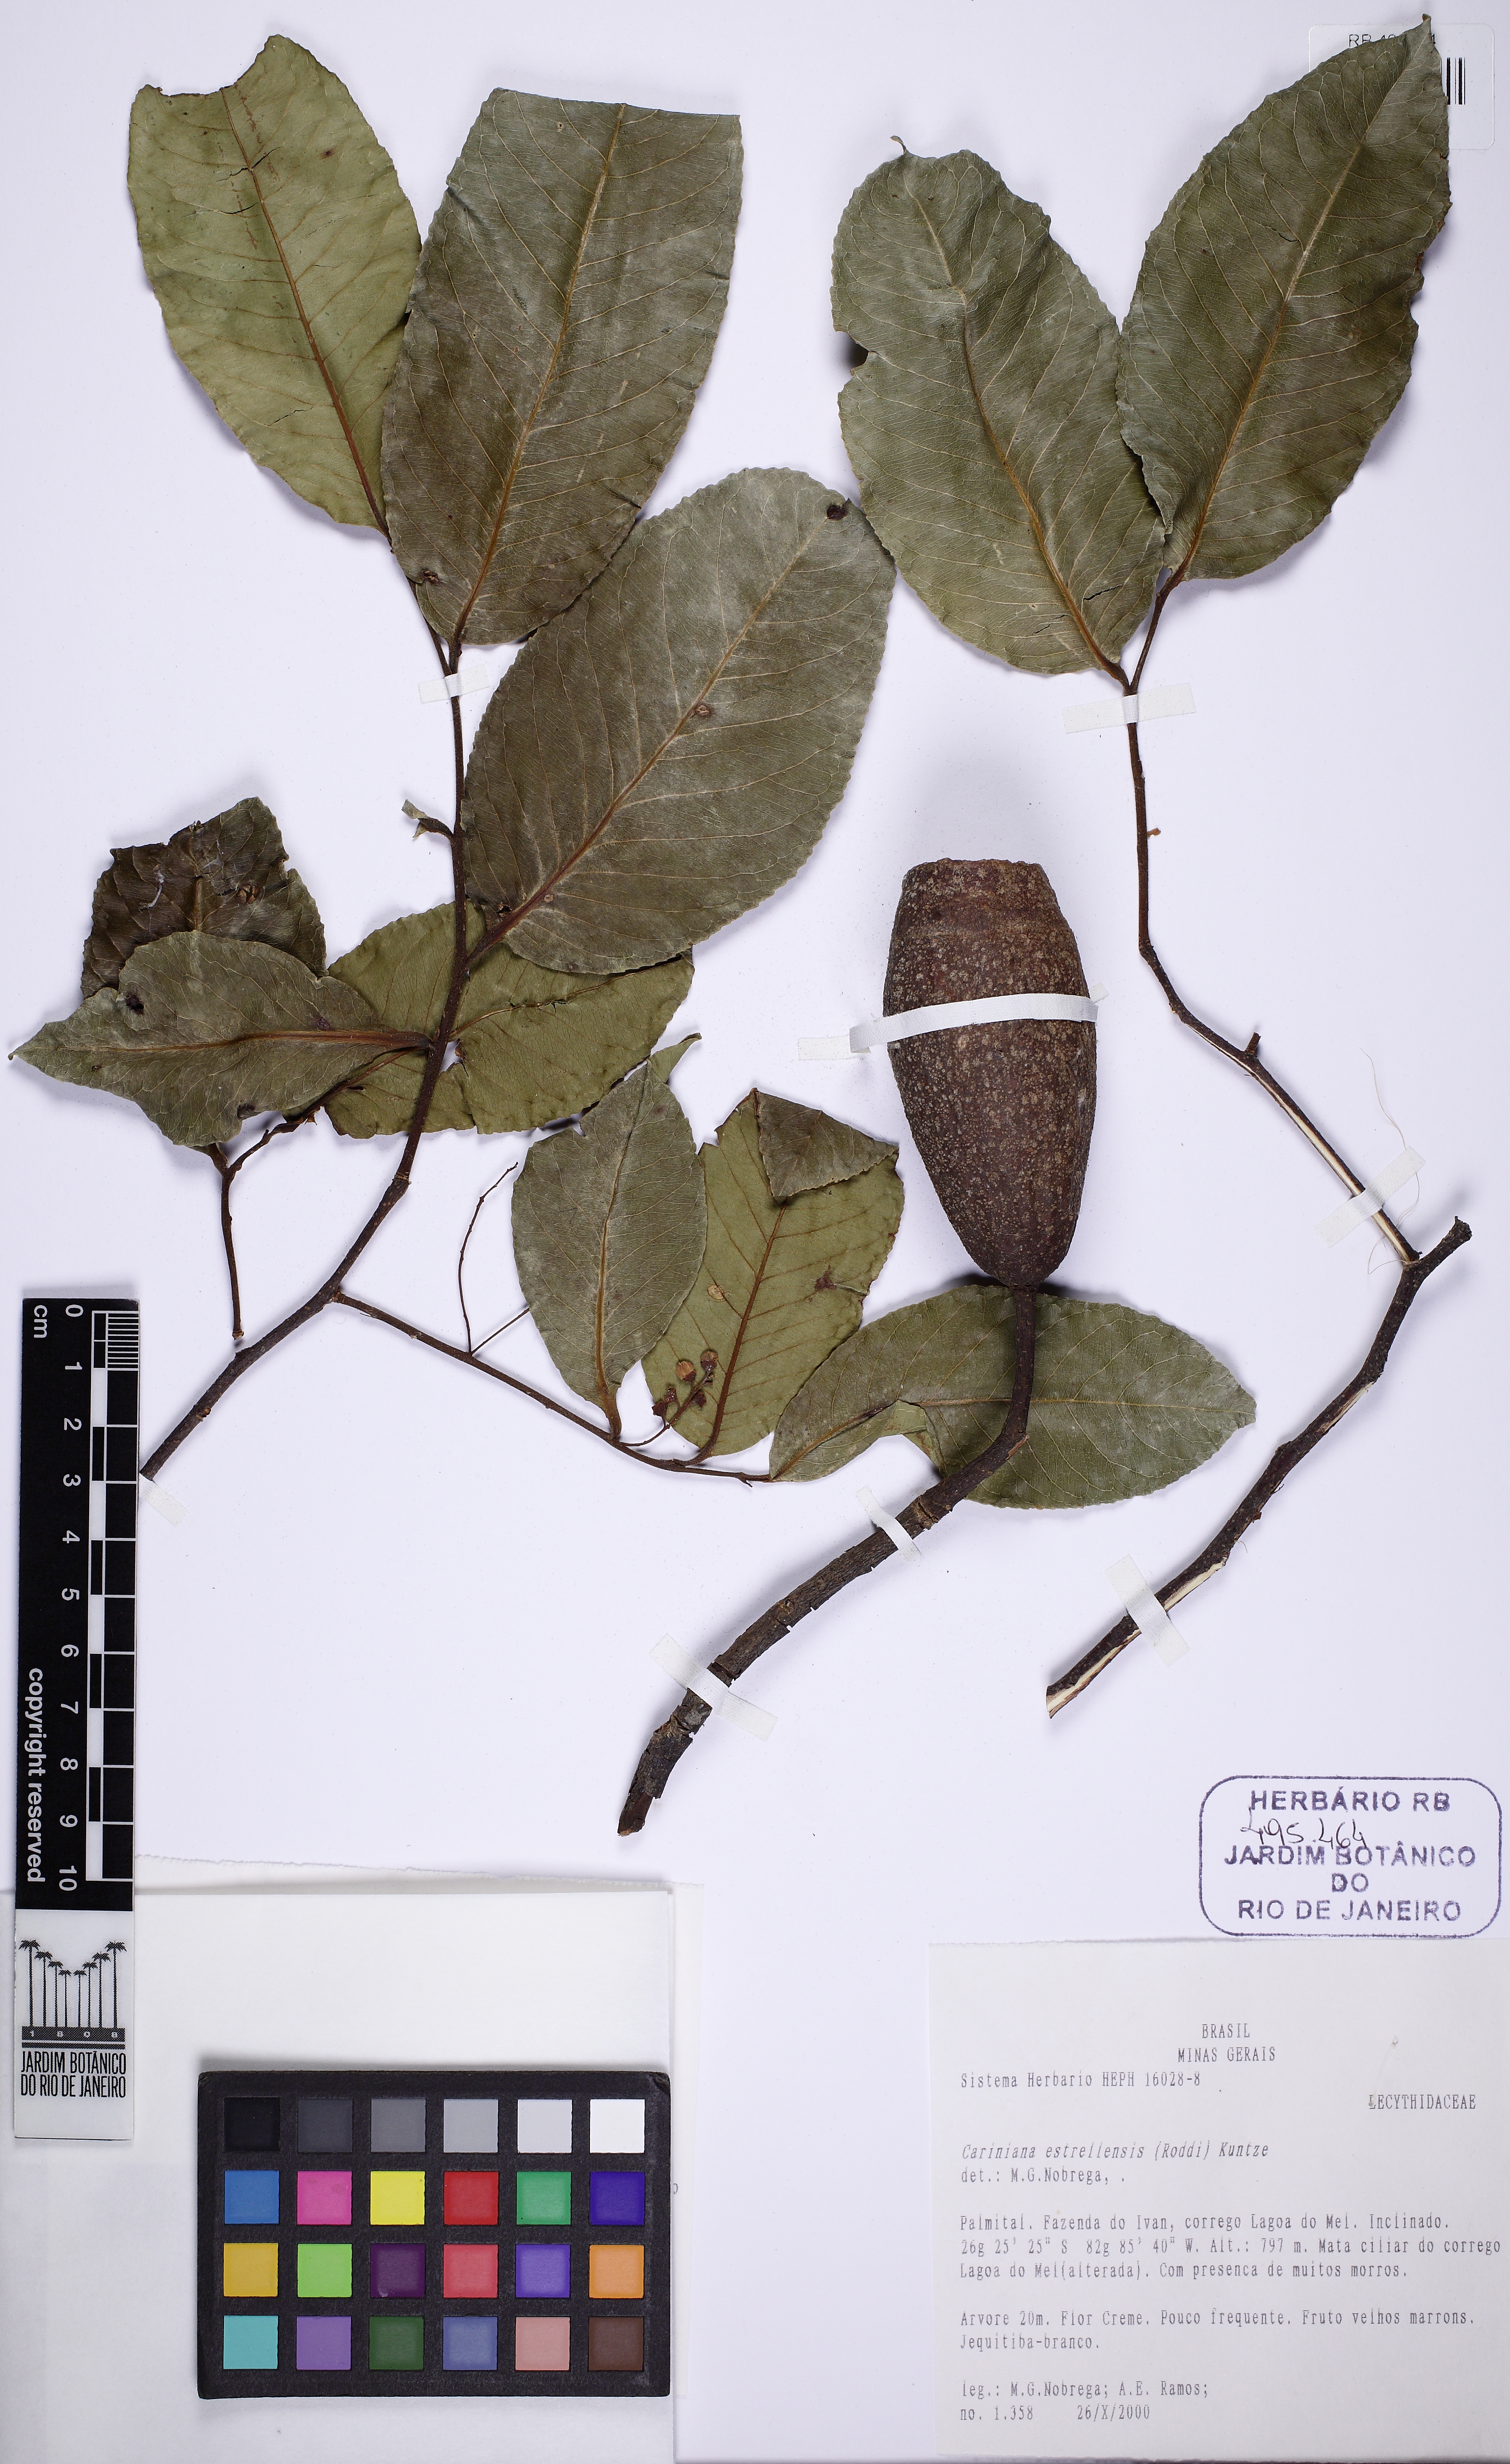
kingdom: Plantae
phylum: Tracheophyta
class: Magnoliopsida
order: Ericales
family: Lecythidaceae
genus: Cariniana
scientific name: Cariniana estrellensis
